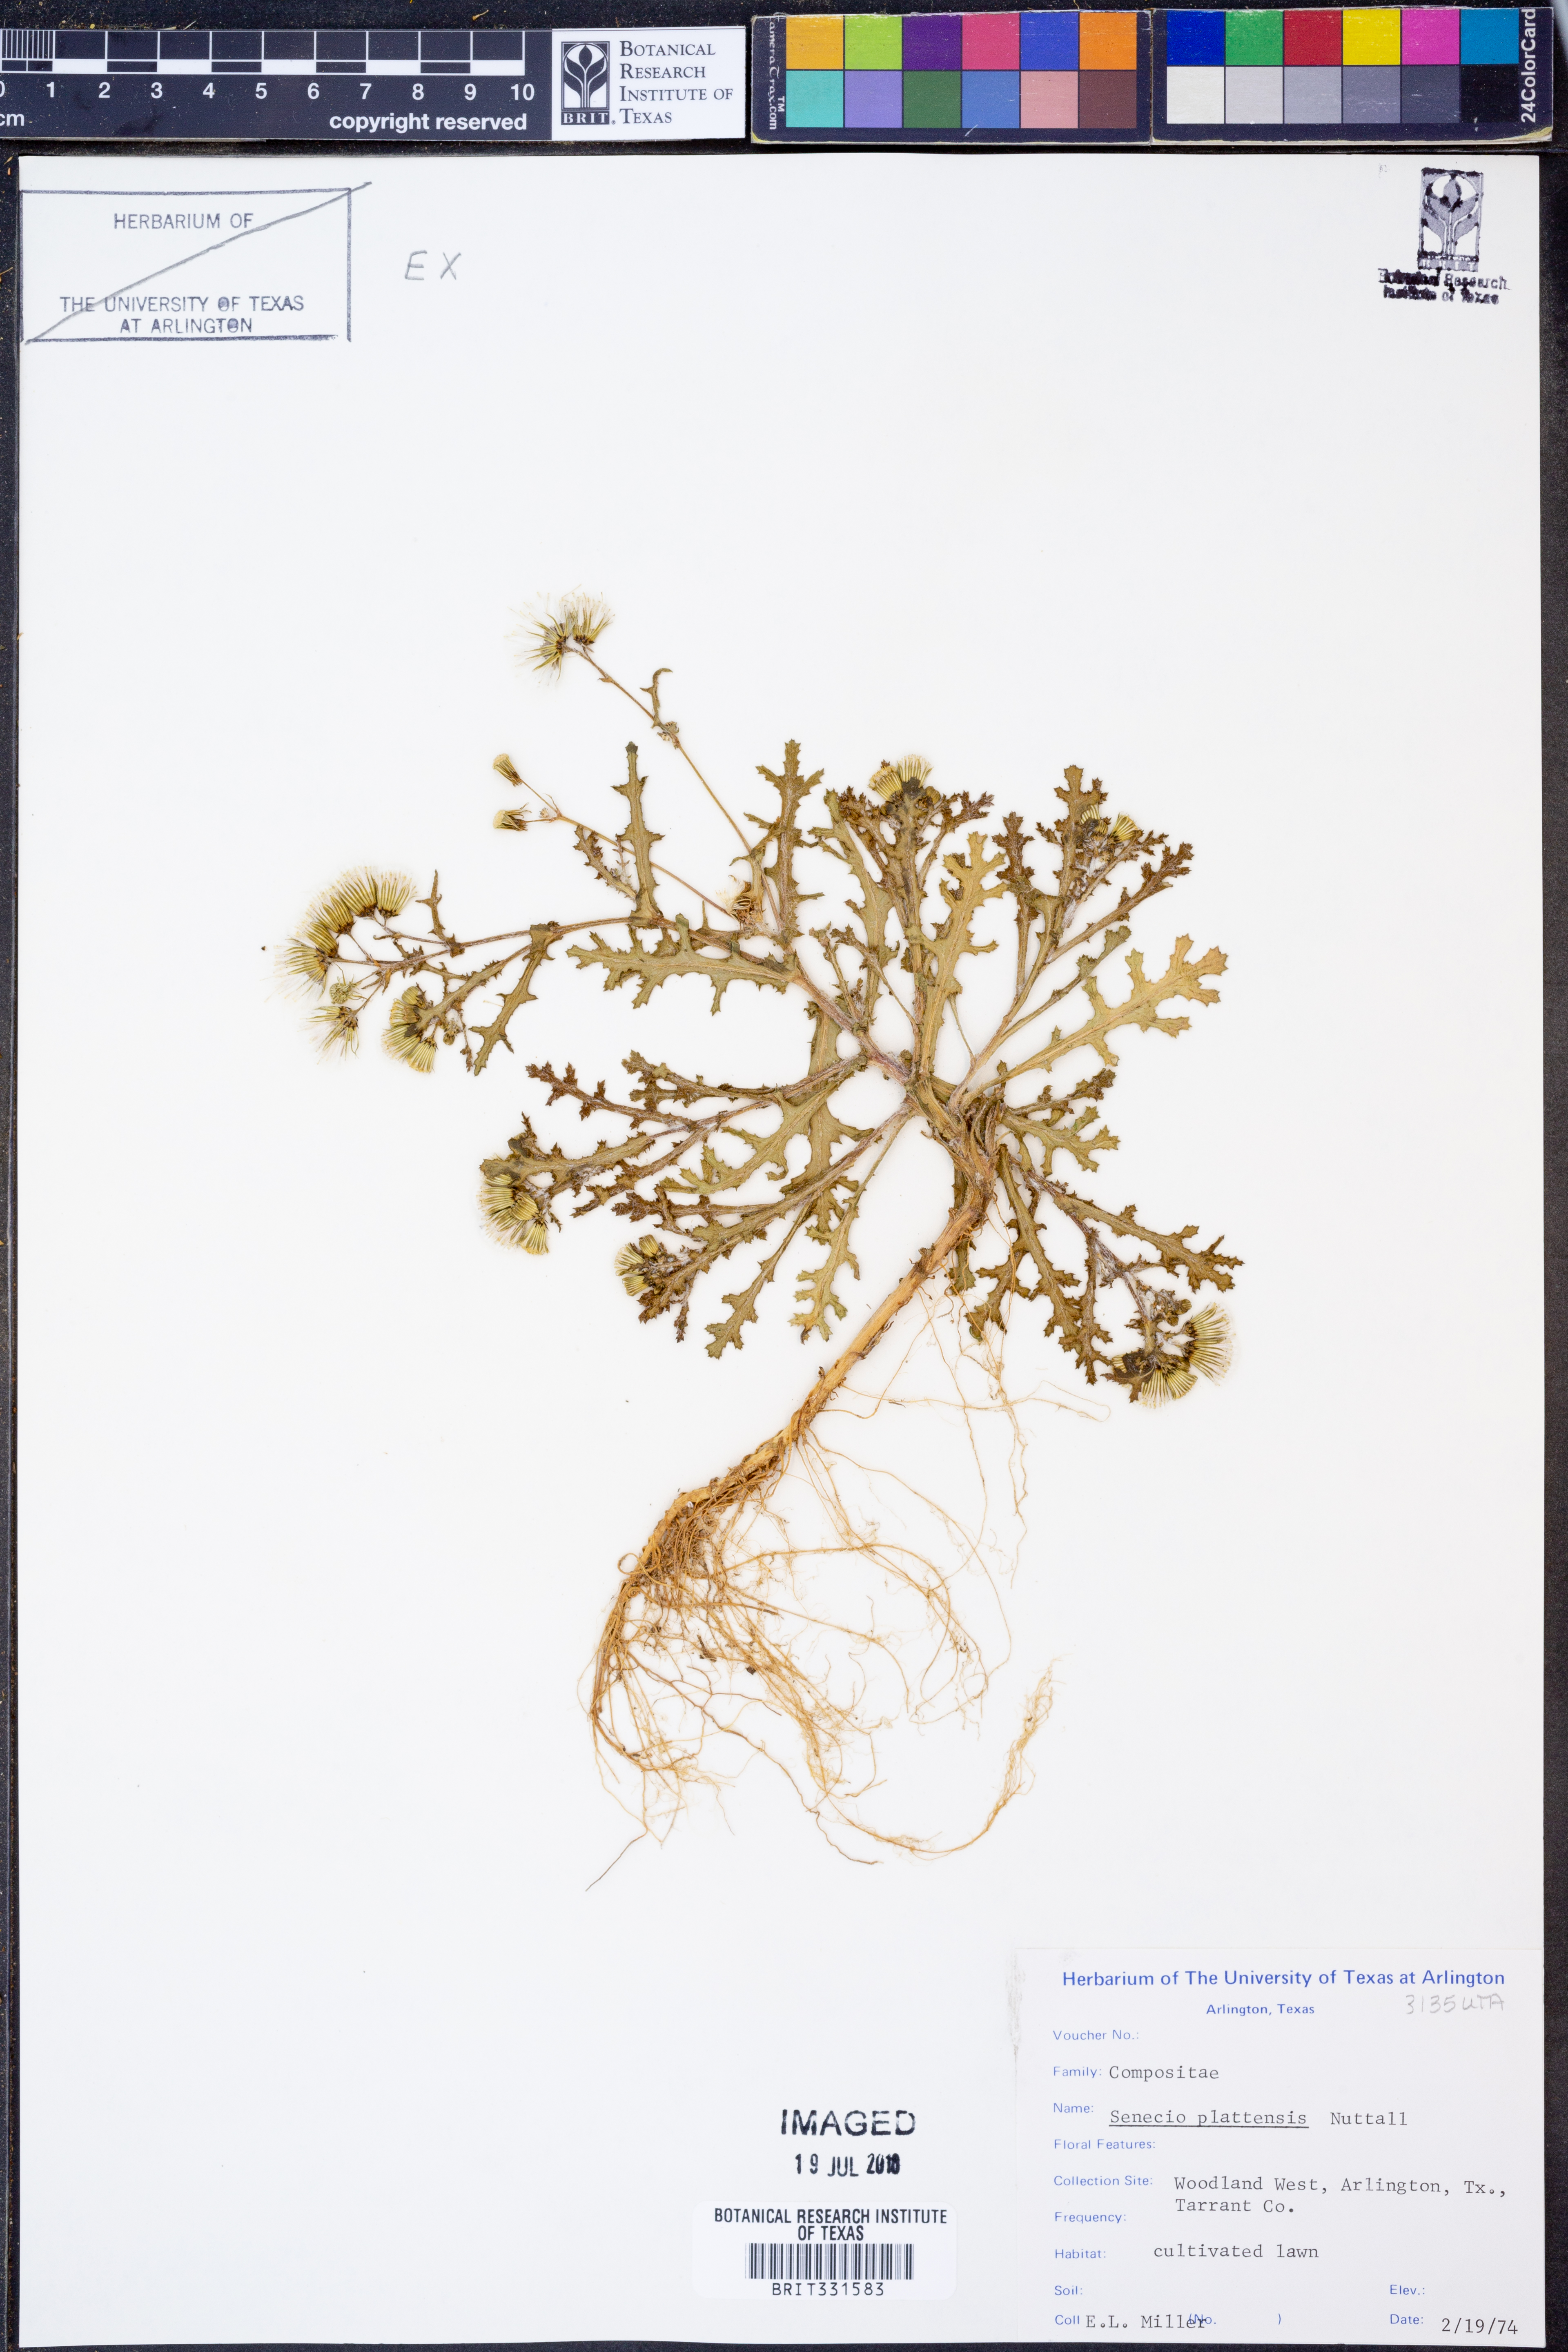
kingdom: Plantae
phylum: Tracheophyta
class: Magnoliopsida
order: Asterales
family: Asteraceae
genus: Packera
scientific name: Packera plattensis
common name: Prairie groundsel
